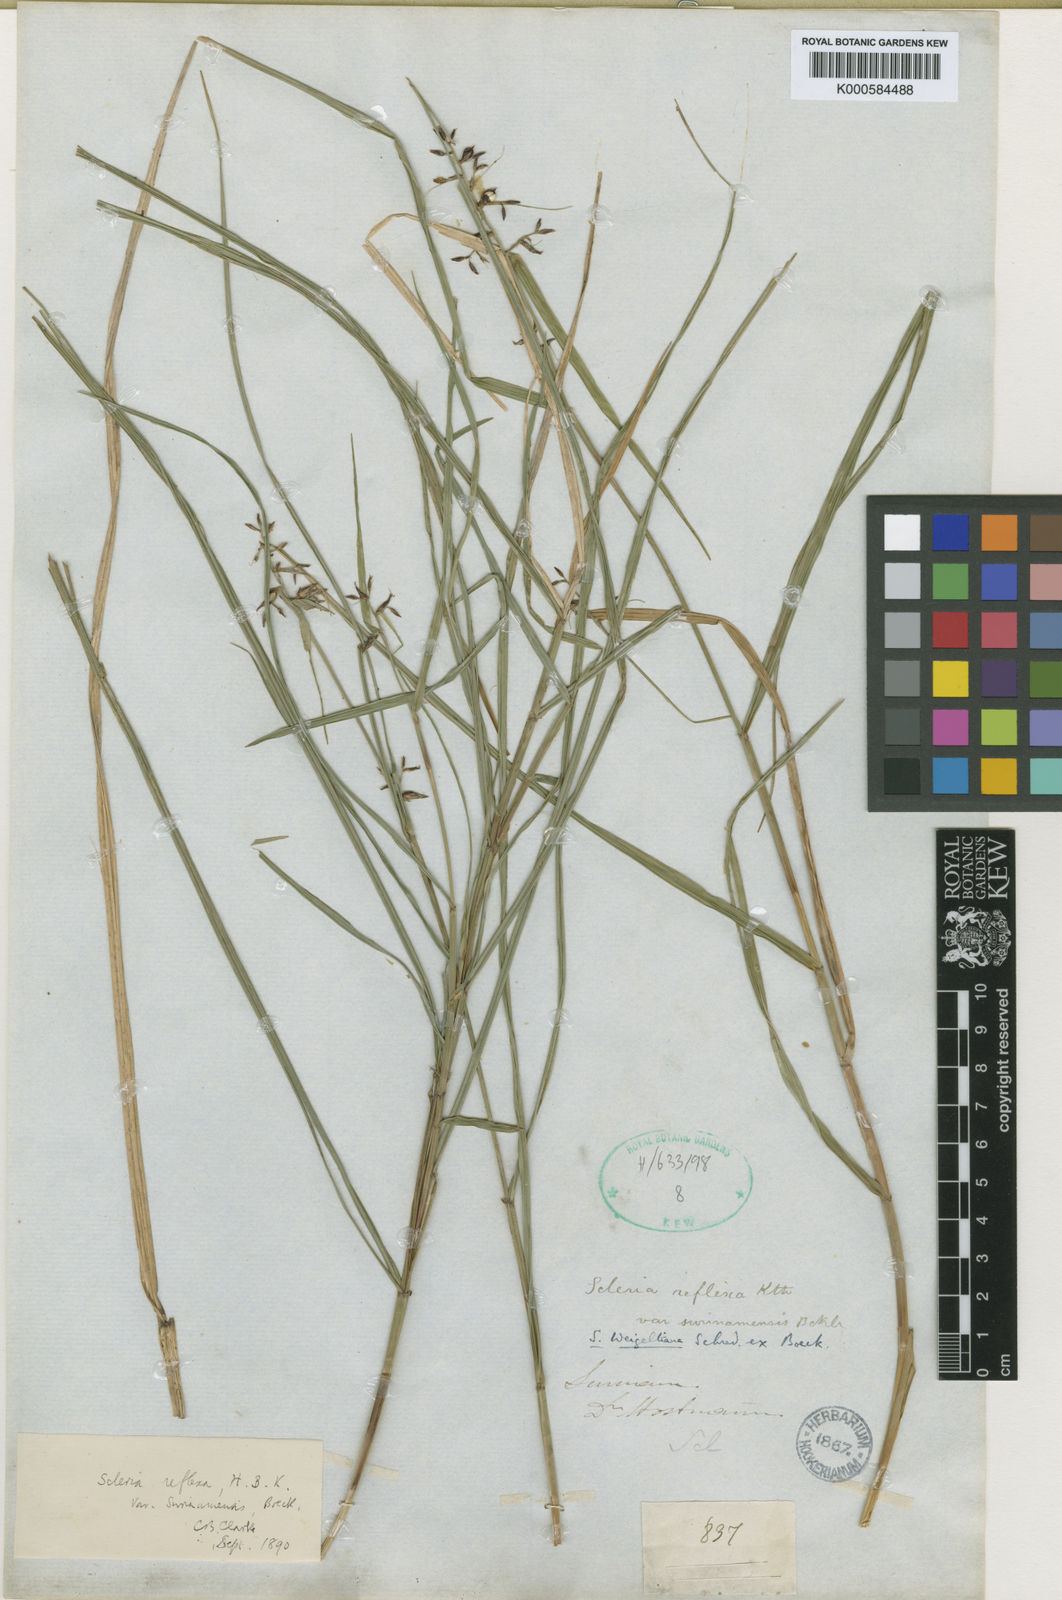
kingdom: Plantae
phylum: Tracheophyta
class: Liliopsida
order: Poales
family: Cyperaceae
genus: Scleria
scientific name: Scleria scabra
